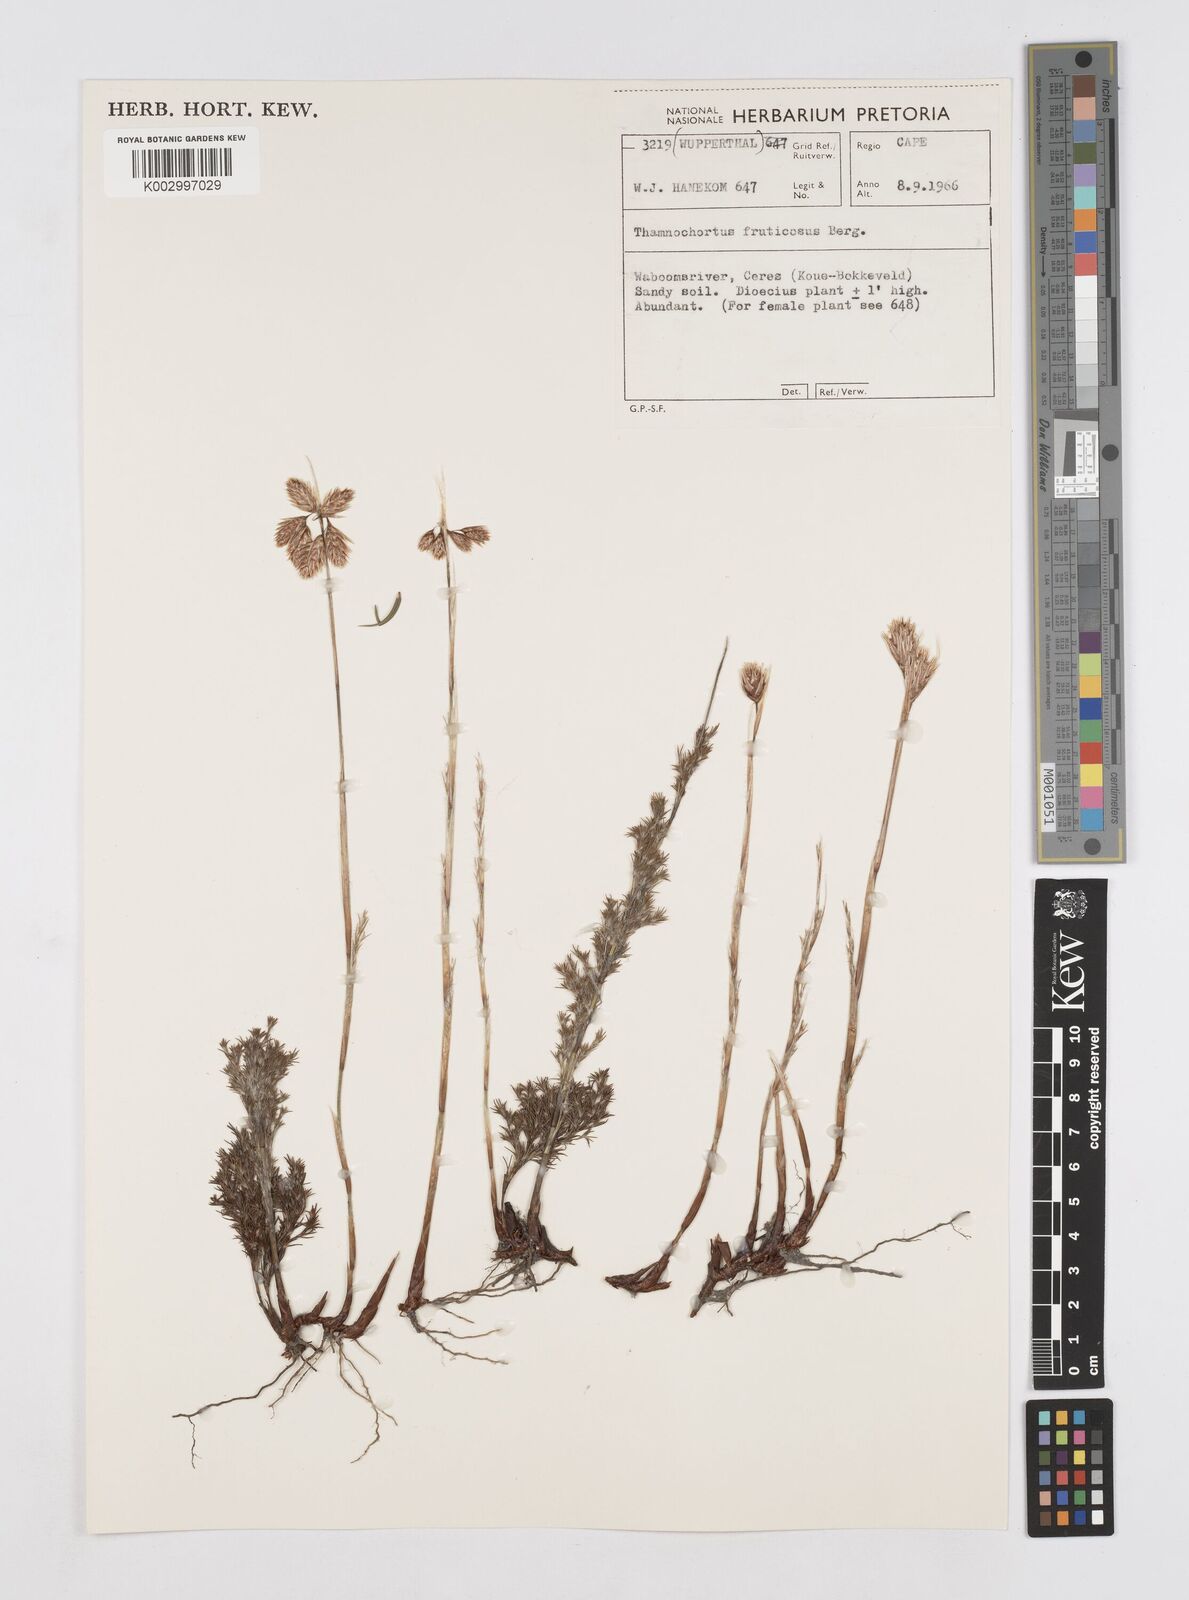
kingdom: Plantae
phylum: Tracheophyta
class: Liliopsida
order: Poales
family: Restionaceae
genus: Thamnochortus
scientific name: Thamnochortus fruticosus
